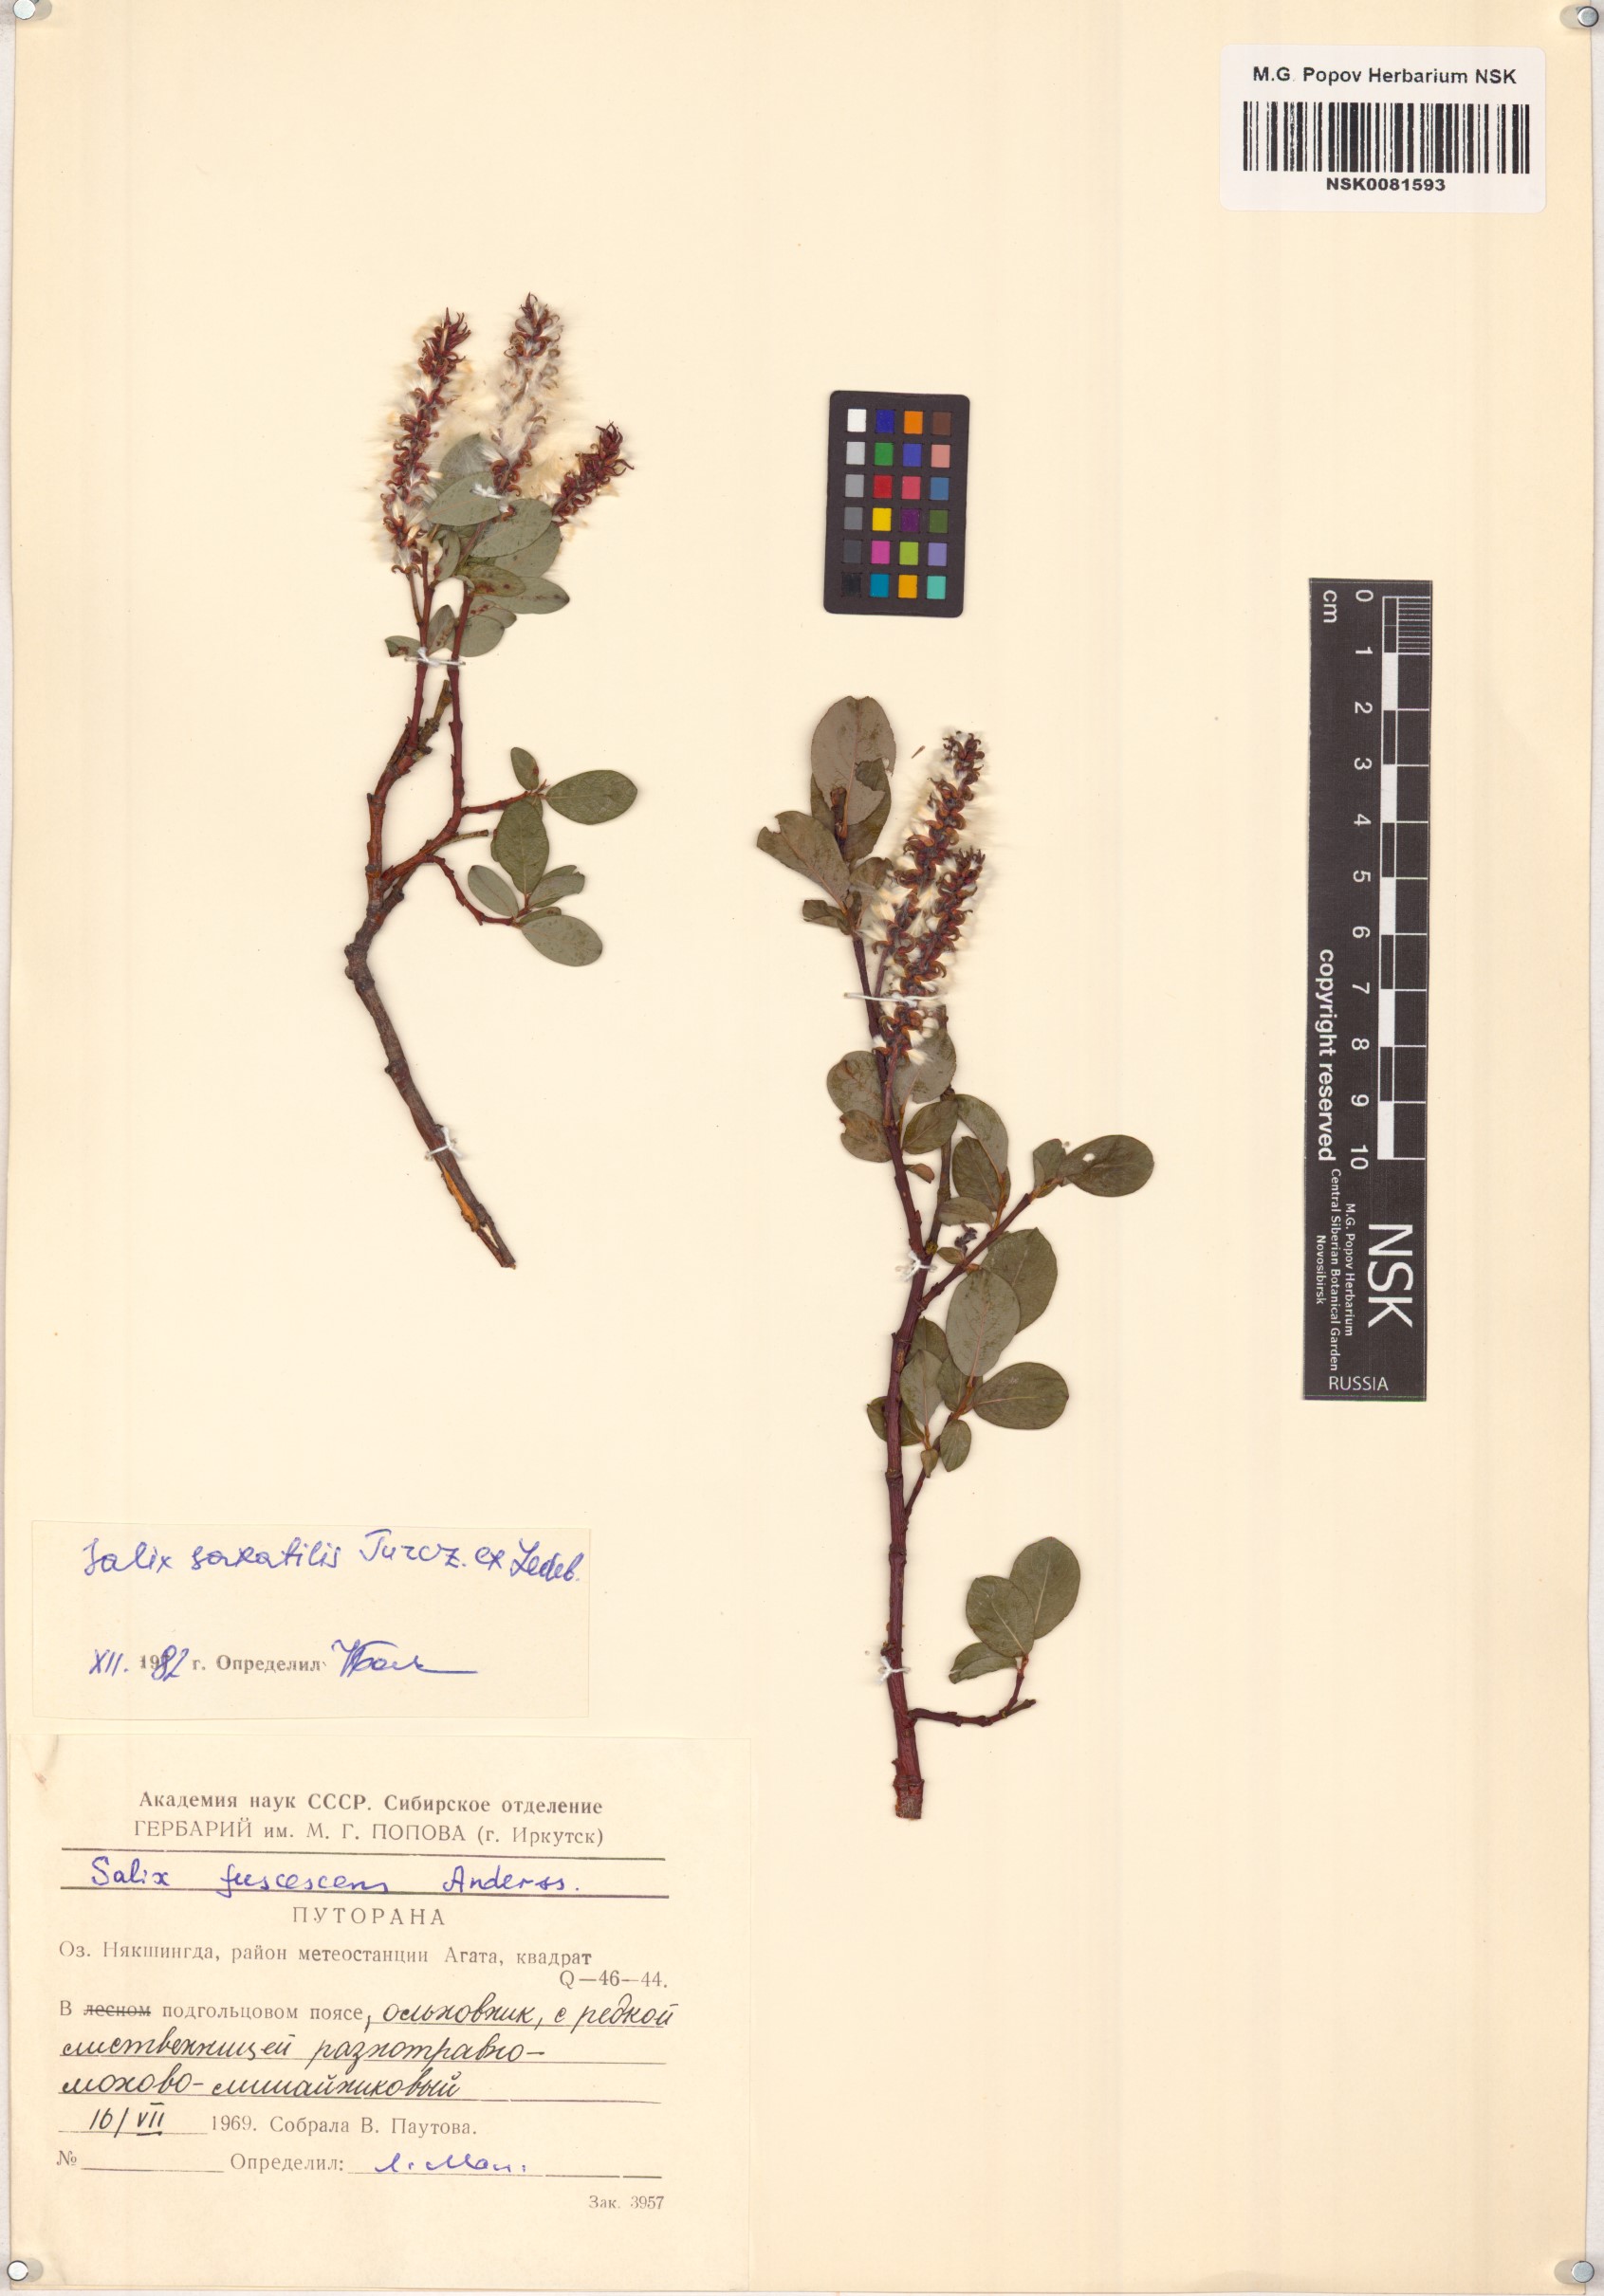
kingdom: Plantae
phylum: Tracheophyta
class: Magnoliopsida
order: Malpighiales
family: Salicaceae
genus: Salix
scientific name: Salix saxatilis
